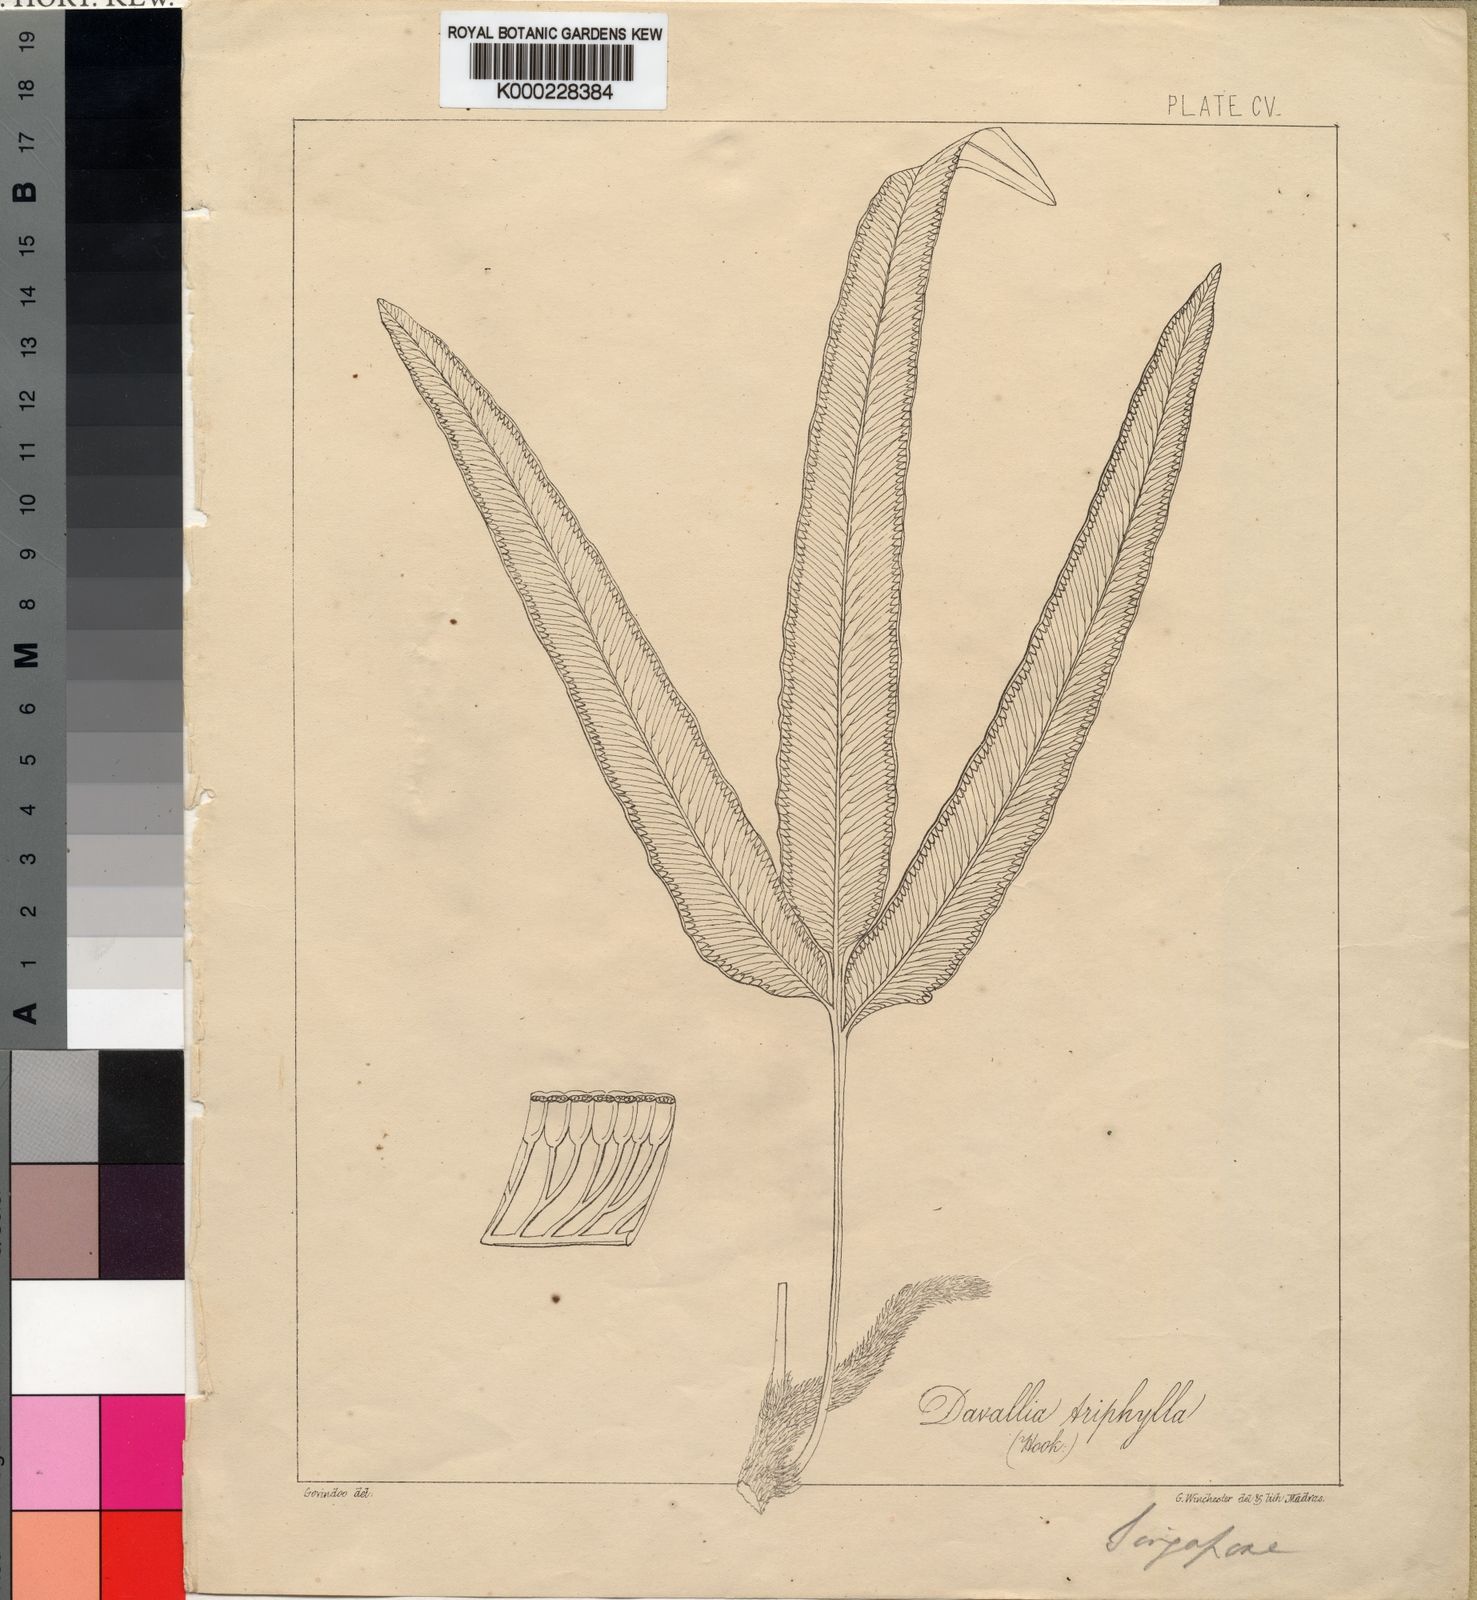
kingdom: Plantae
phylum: Tracheophyta
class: Polypodiopsida
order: Polypodiales
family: Davalliaceae
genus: Davallia
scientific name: Davallia
